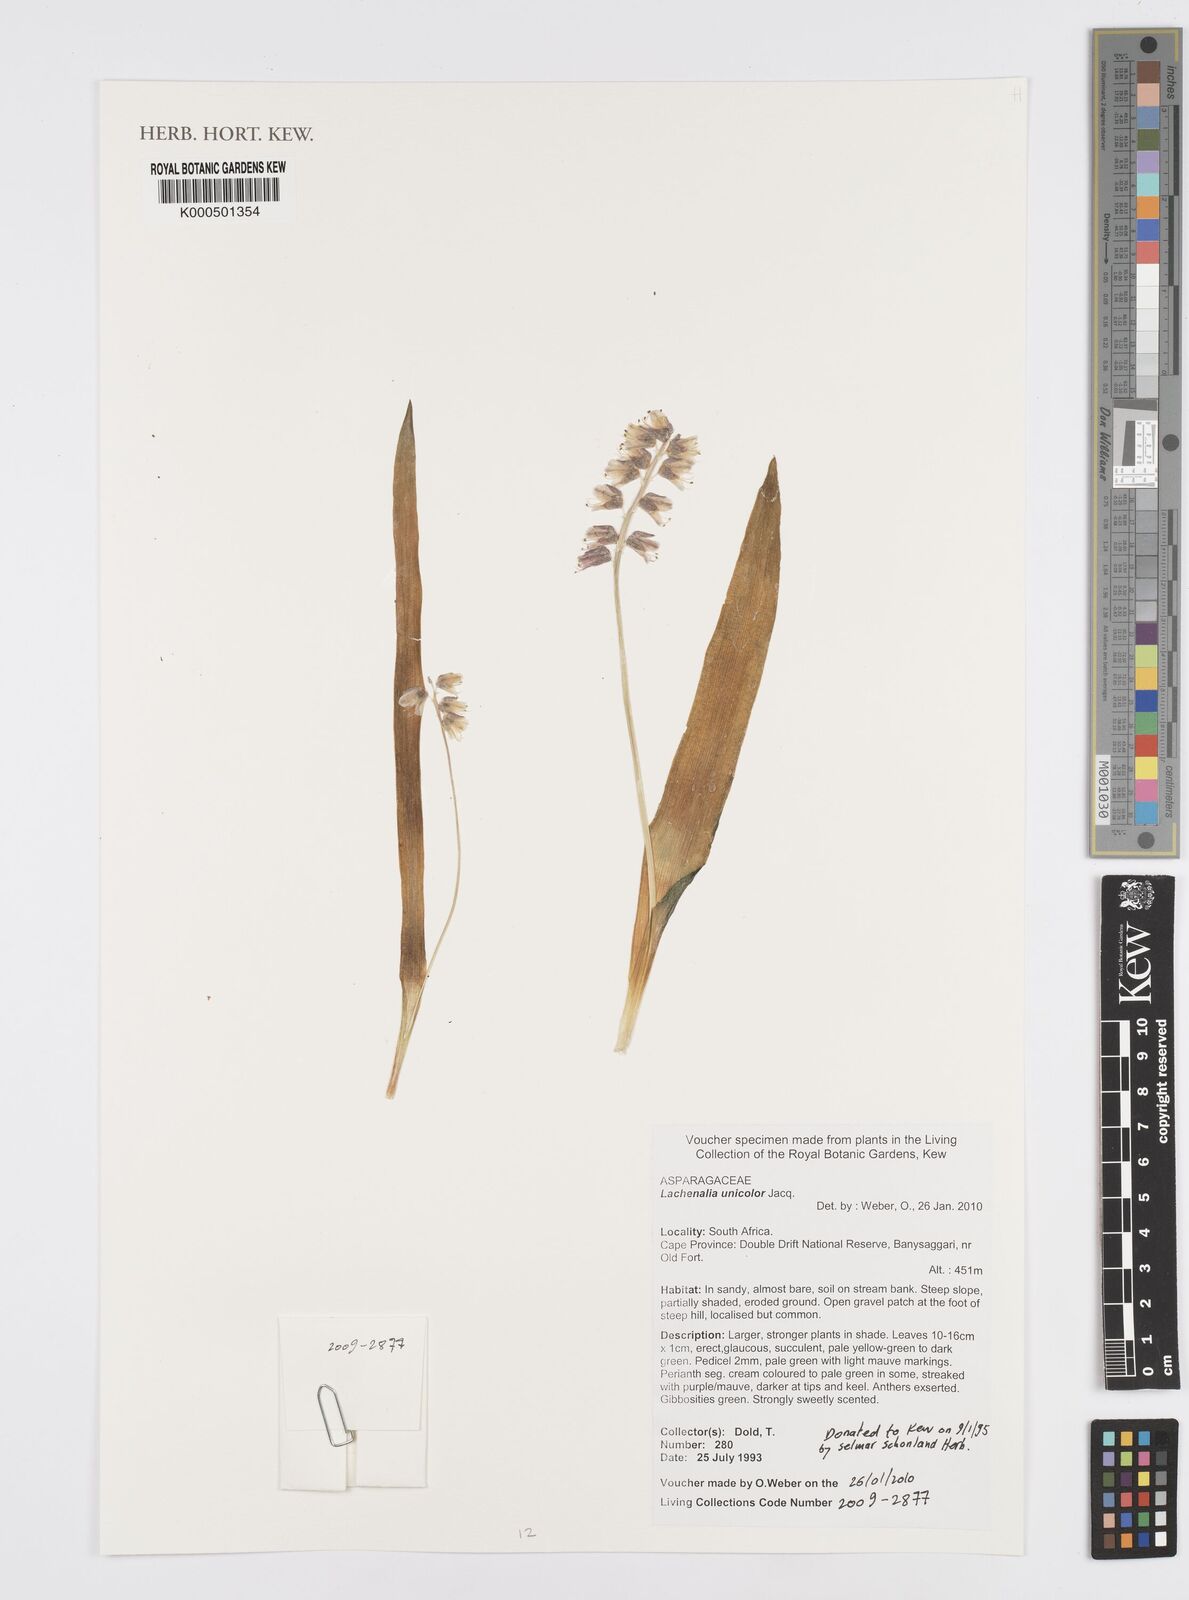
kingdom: Plantae
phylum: Tracheophyta
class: Liliopsida
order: Asparagales
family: Asparagaceae
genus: Lachenalia
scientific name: Lachenalia pallida
